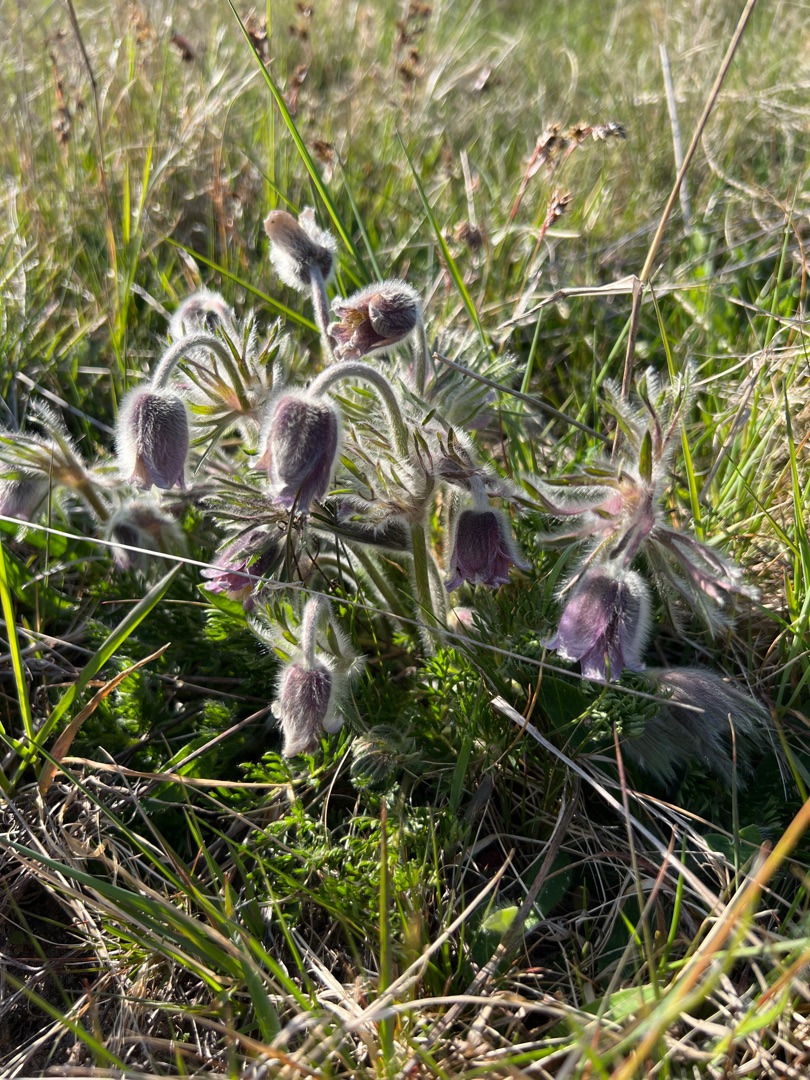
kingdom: Plantae
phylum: Tracheophyta
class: Magnoliopsida
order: Ranunculales
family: Ranunculaceae
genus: Pulsatilla
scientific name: Pulsatilla pratensis
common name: Nikkende kobjælde
